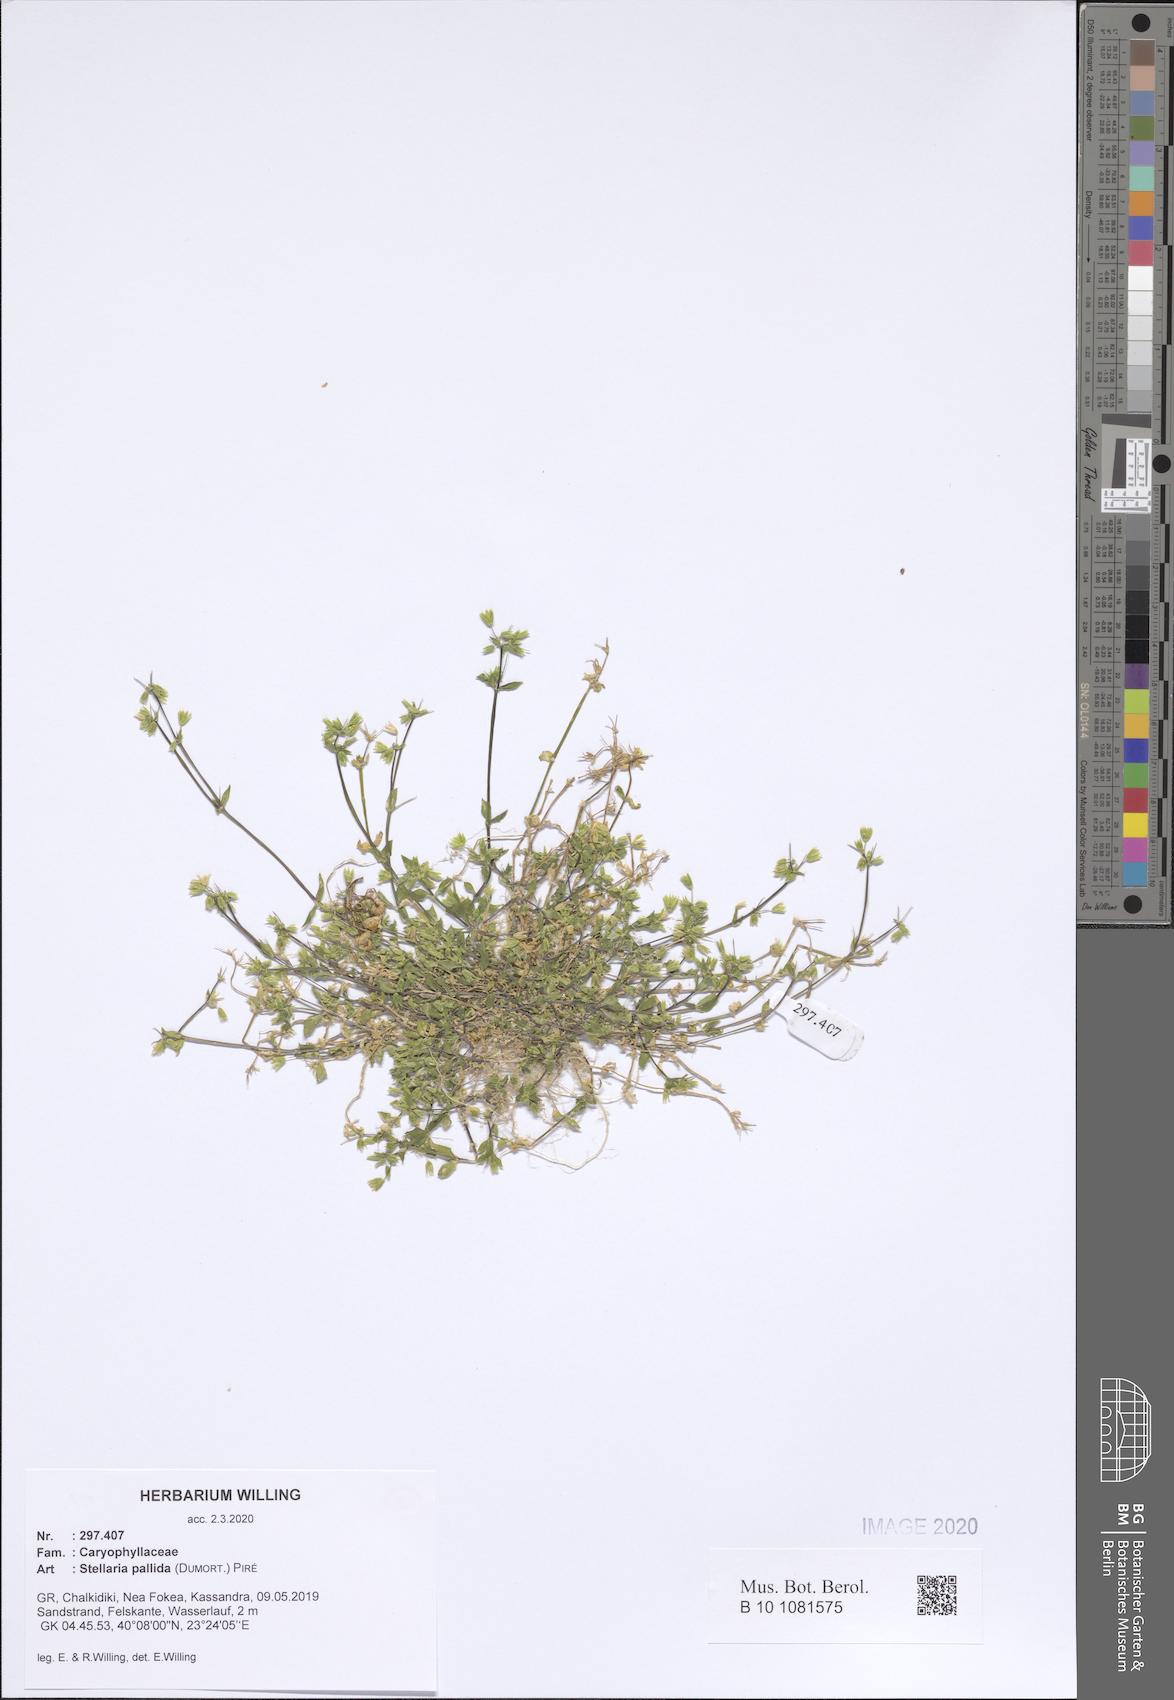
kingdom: Plantae
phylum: Tracheophyta
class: Magnoliopsida
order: Caryophyllales
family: Caryophyllaceae
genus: Stellaria
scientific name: Stellaria apetala
